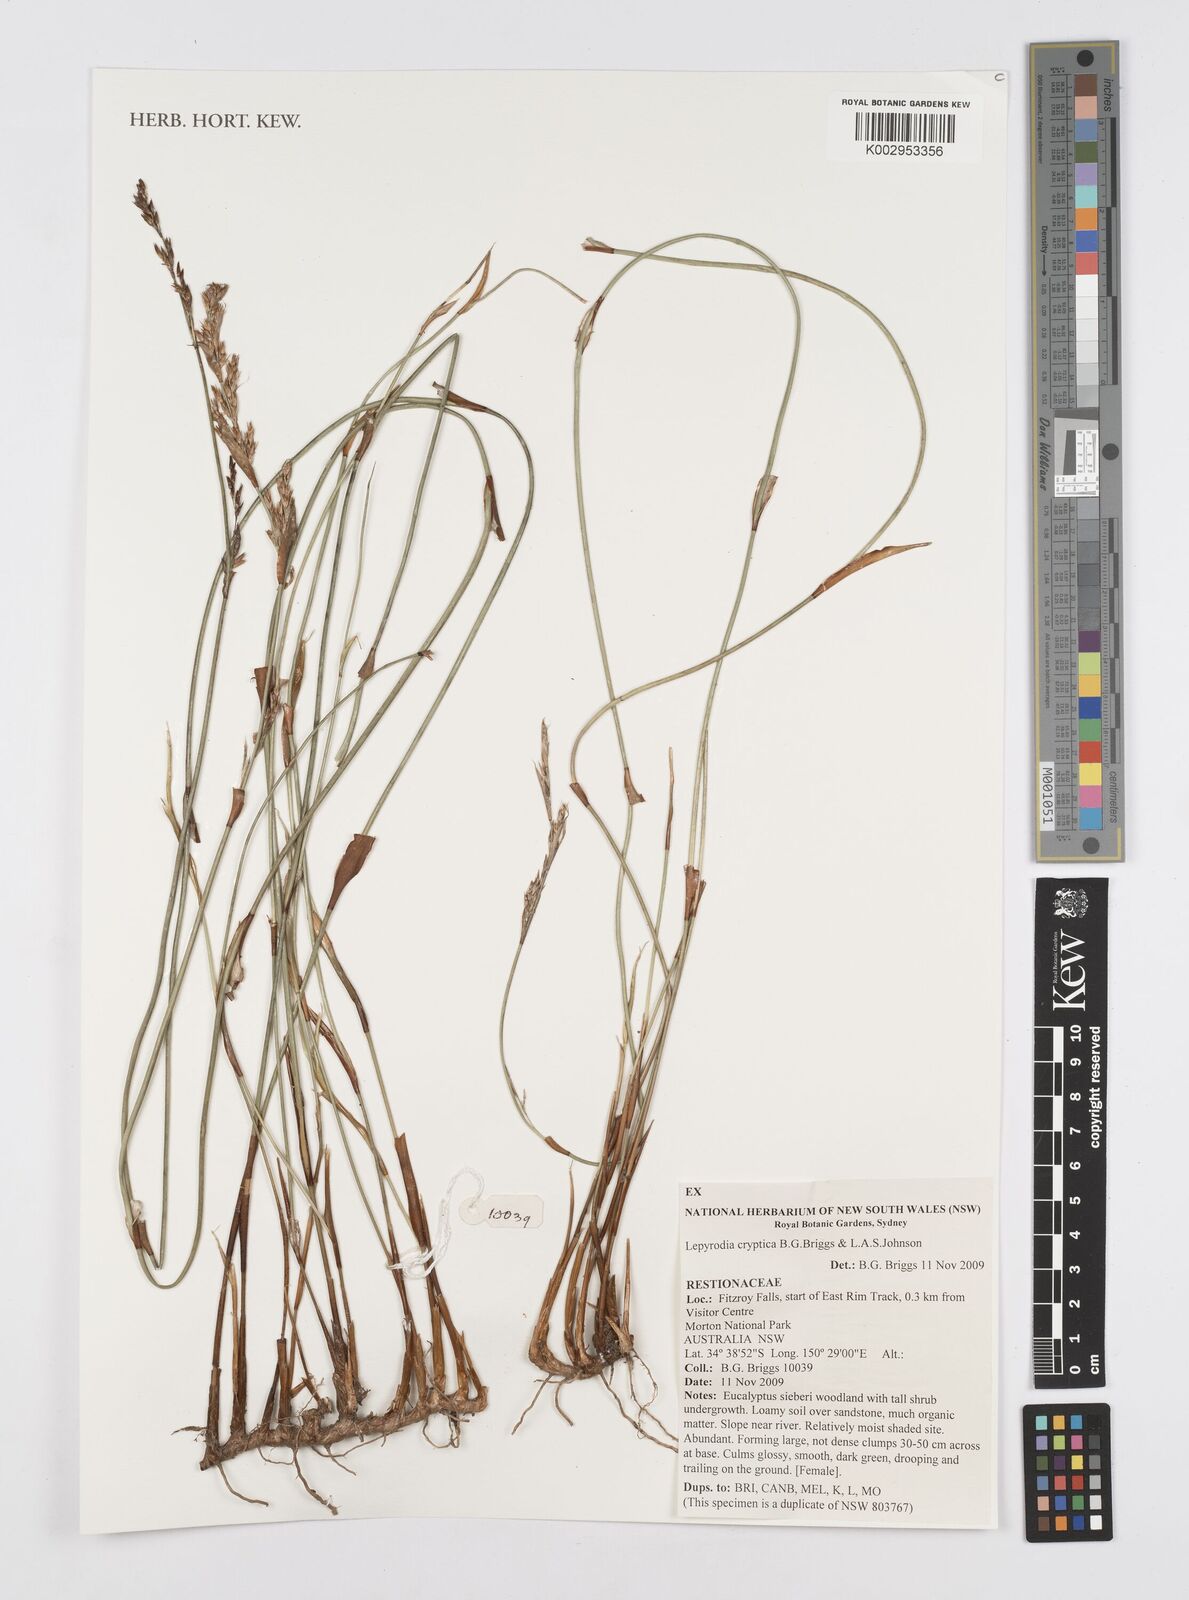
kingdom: Plantae
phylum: Tracheophyta
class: Liliopsida
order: Poales
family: Restionaceae
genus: Lepyrodia
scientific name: Lepyrodia cryptica
